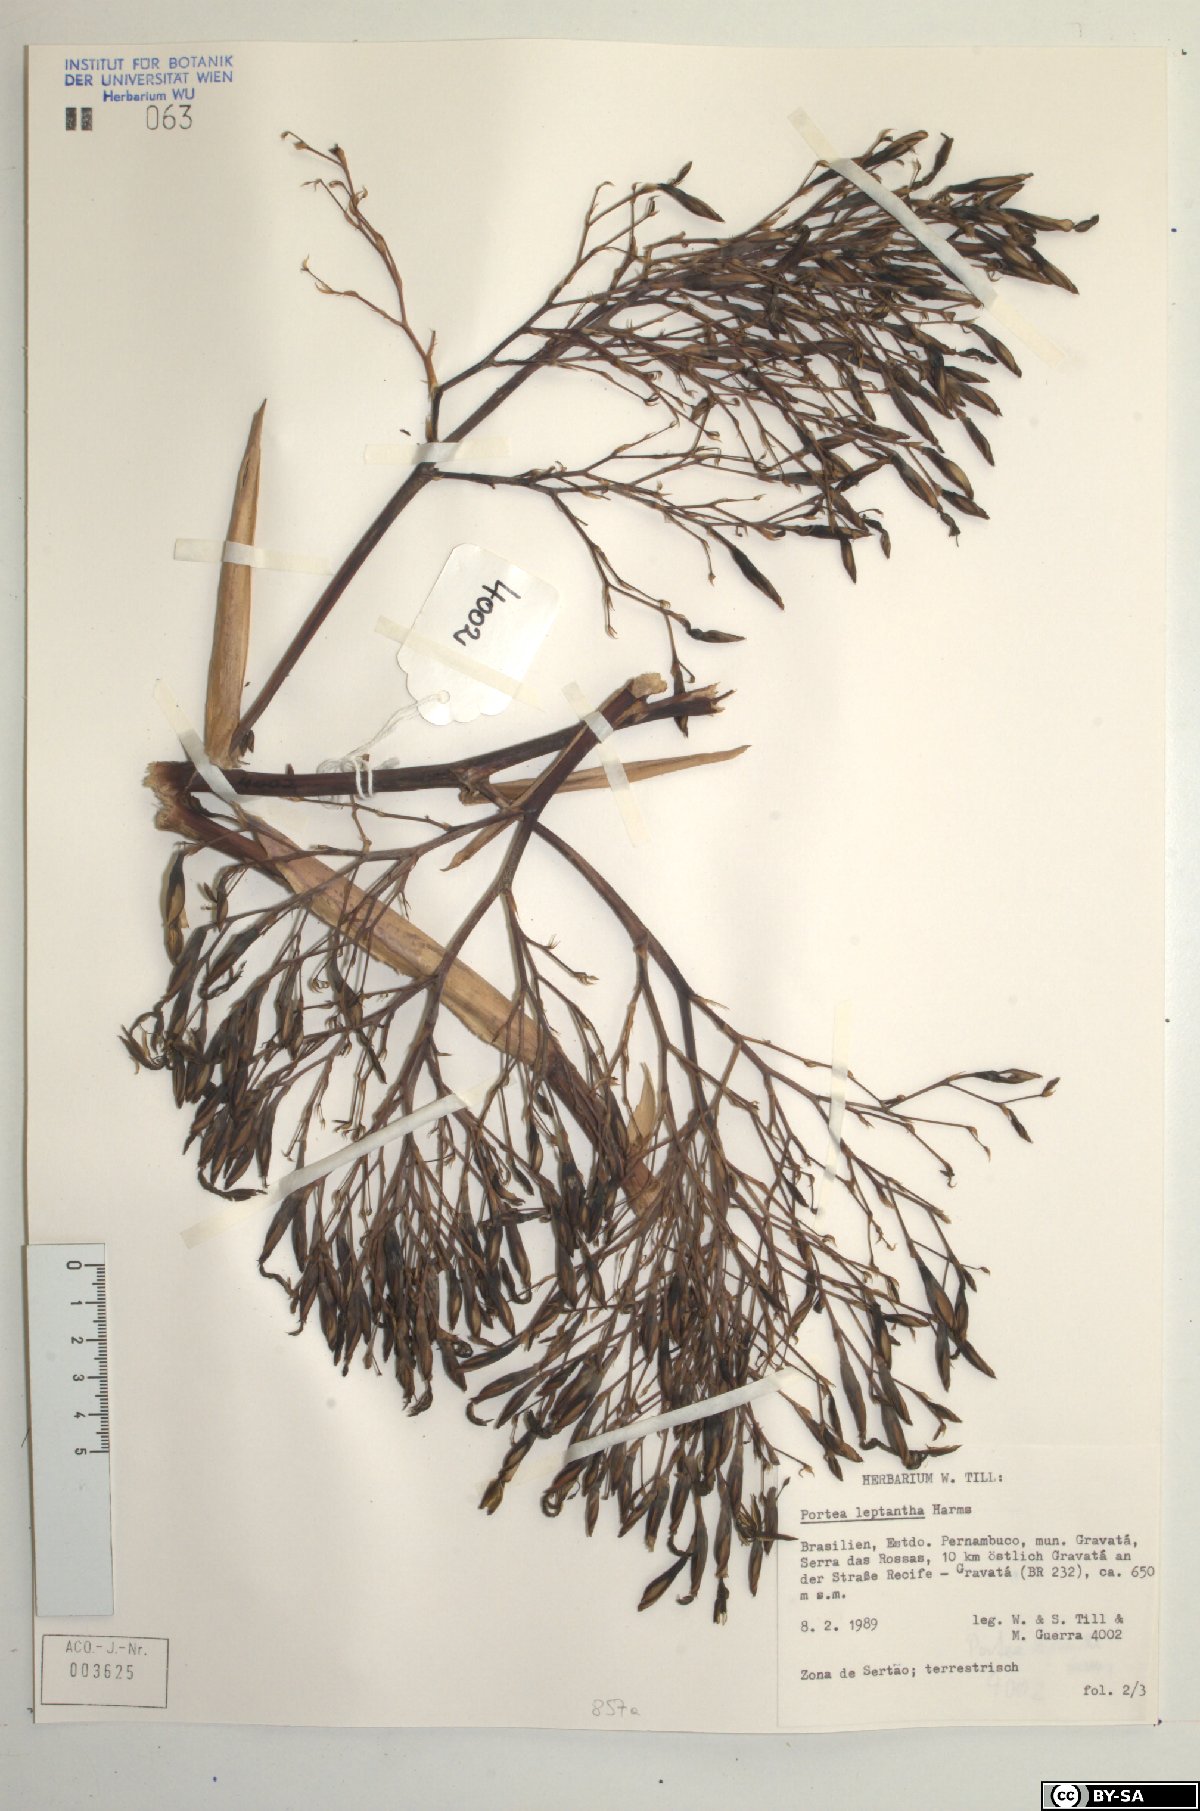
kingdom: Plantae
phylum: Tracheophyta
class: Liliopsida
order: Poales
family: Bromeliaceae
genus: Aechmea
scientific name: Aechmea leptantha
